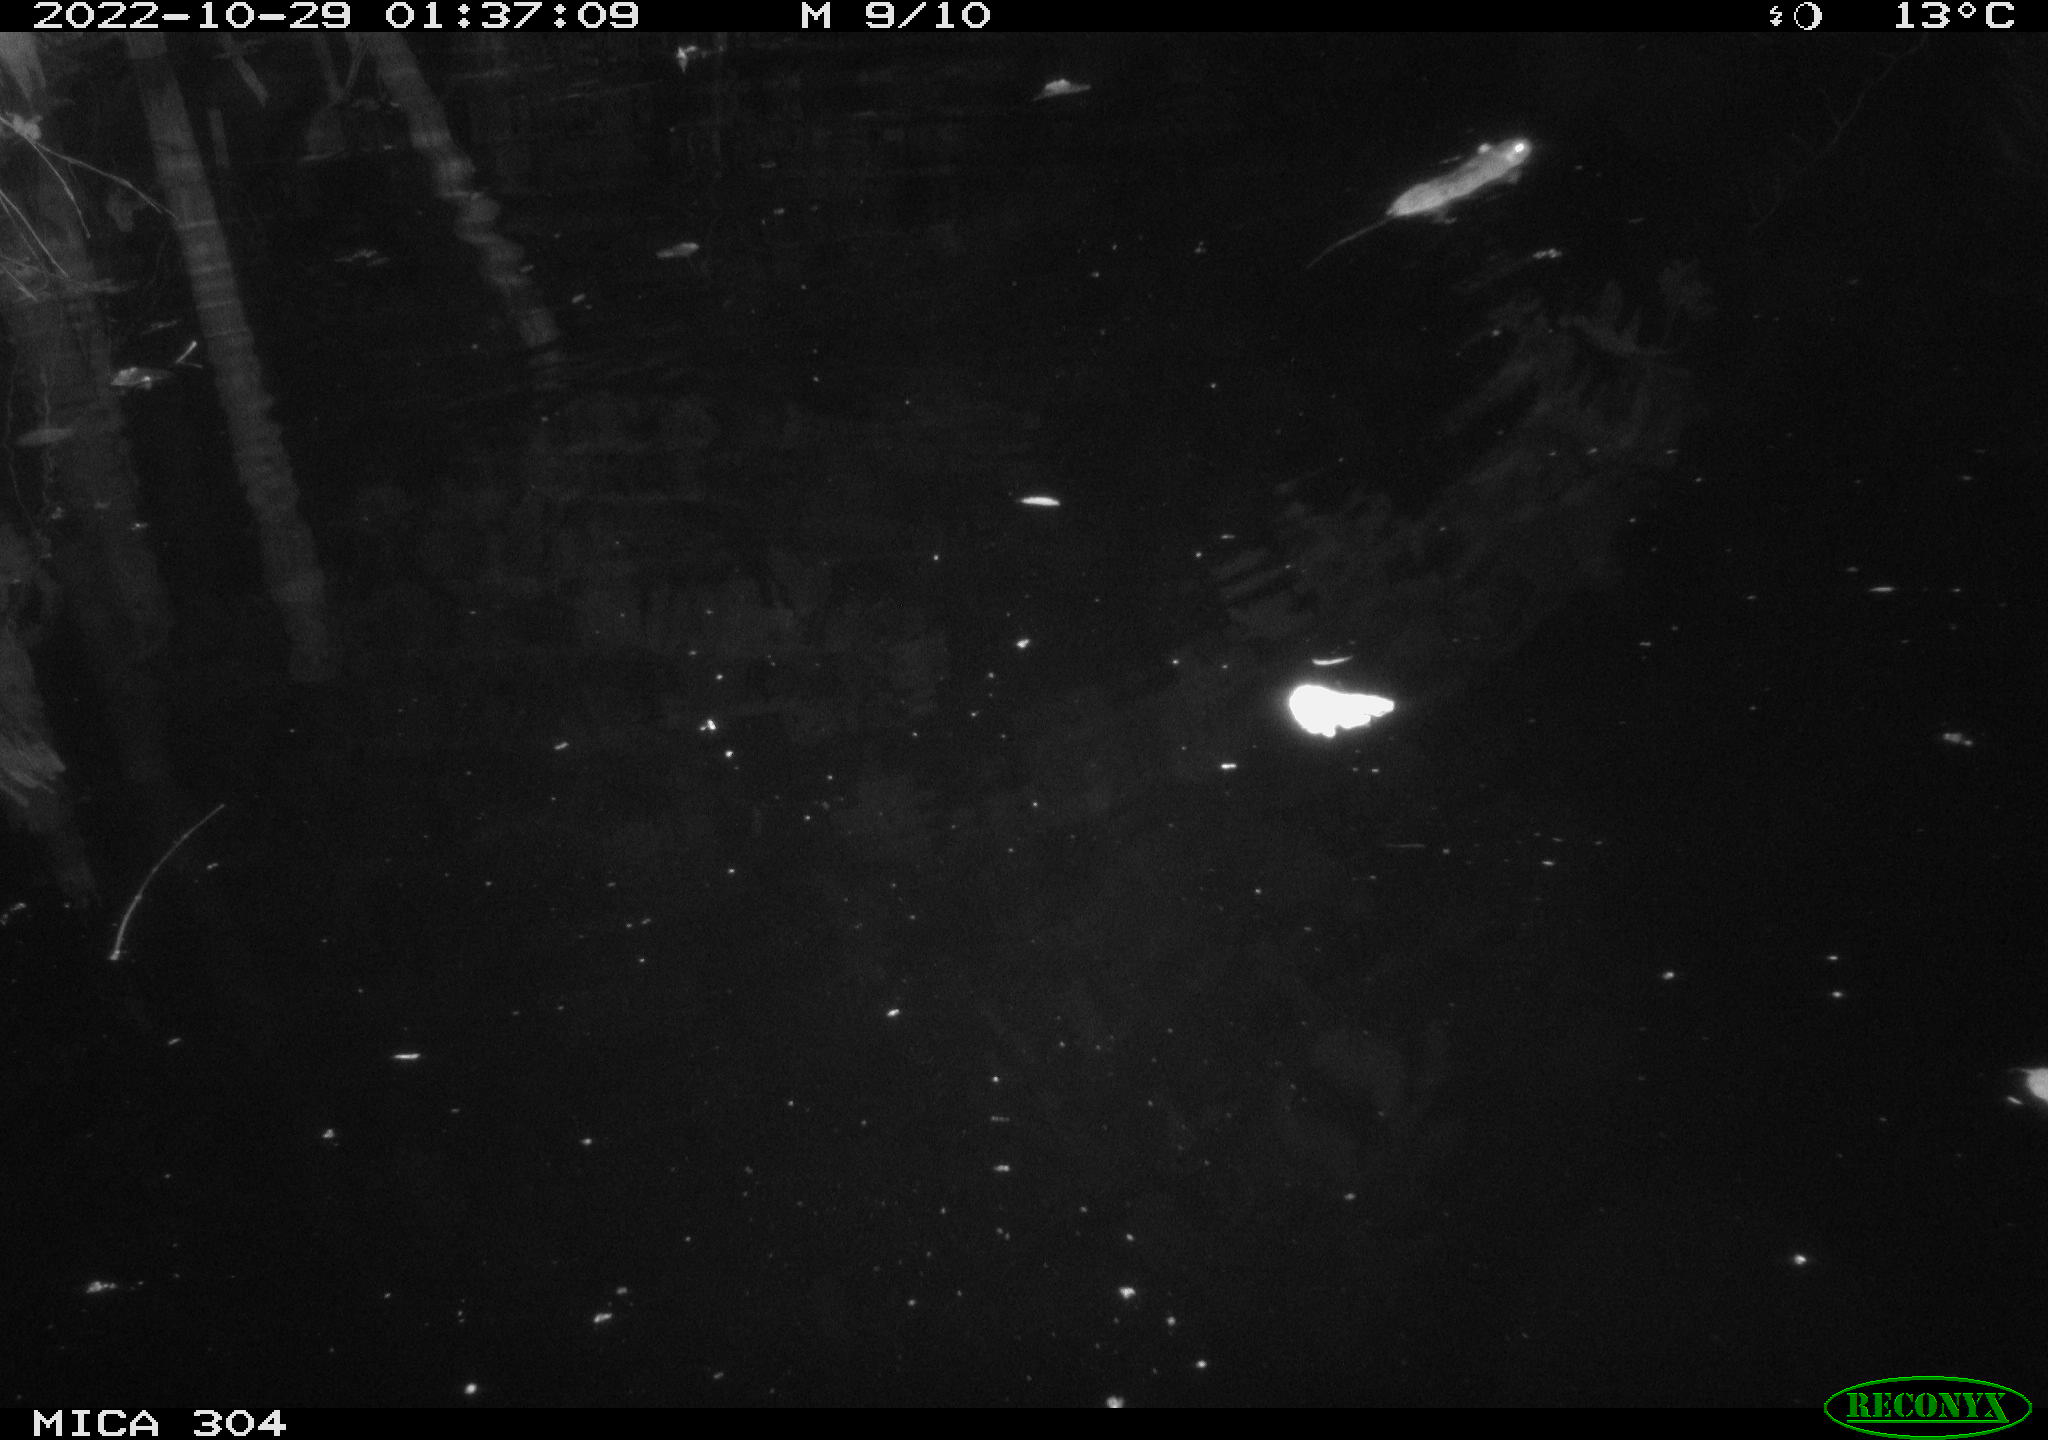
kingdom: Animalia
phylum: Chordata
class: Mammalia
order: Rodentia
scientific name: Rodentia
